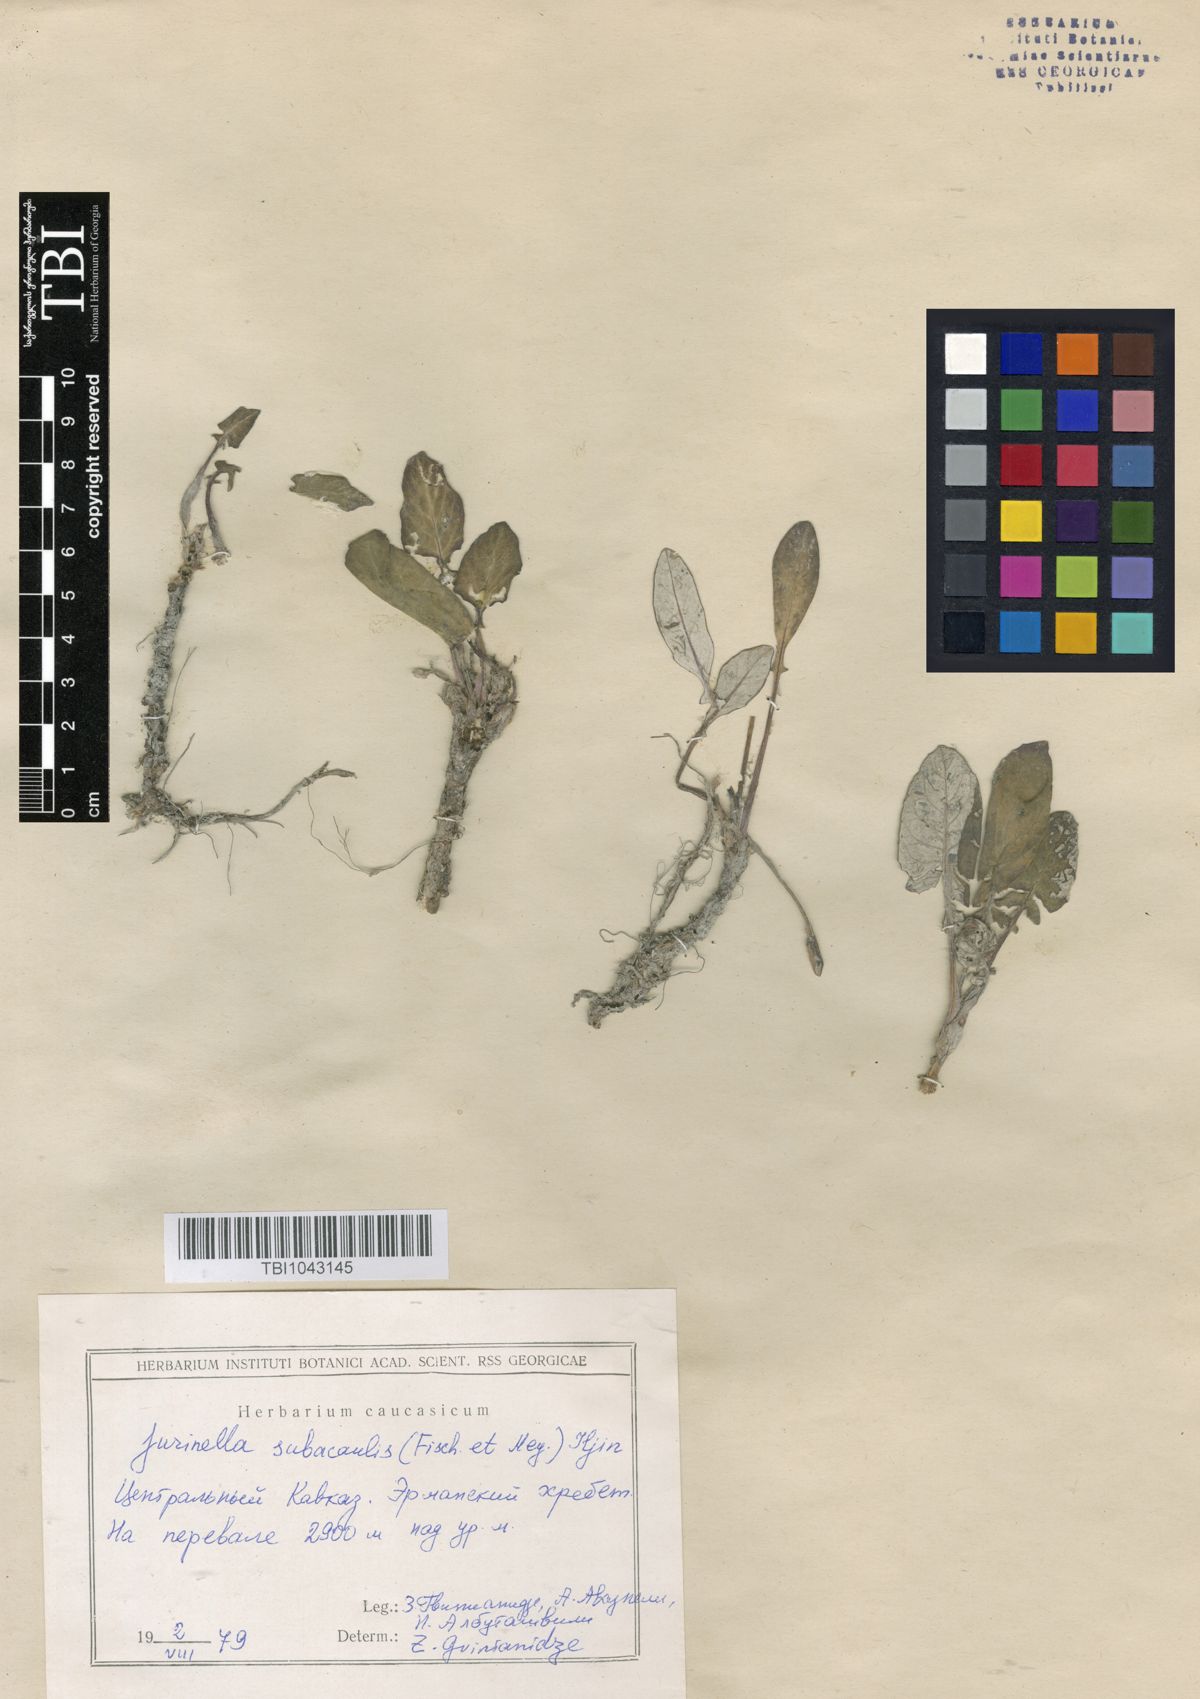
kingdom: Plantae
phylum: Tracheophyta
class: Magnoliopsida
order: Asterales
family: Asteraceae
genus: Jurinea
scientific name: Jurinea moschus
